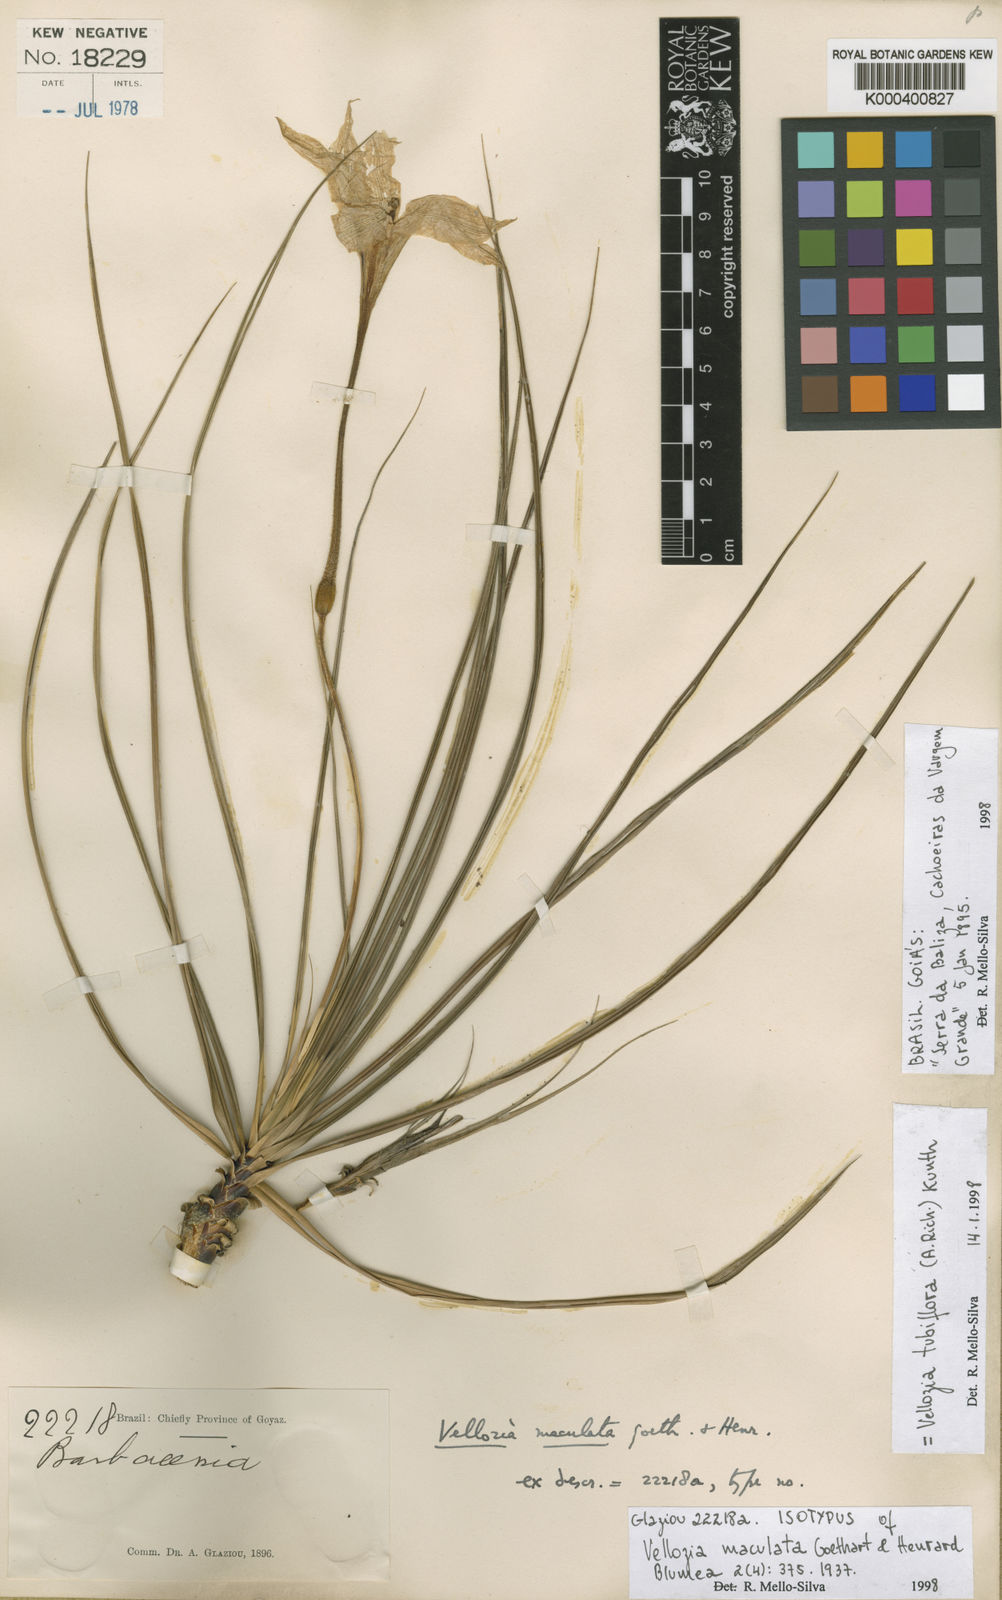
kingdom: Plantae
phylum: Tracheophyta
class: Liliopsida
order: Pandanales
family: Velloziaceae
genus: Vellozia
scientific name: Vellozia tubiflora
